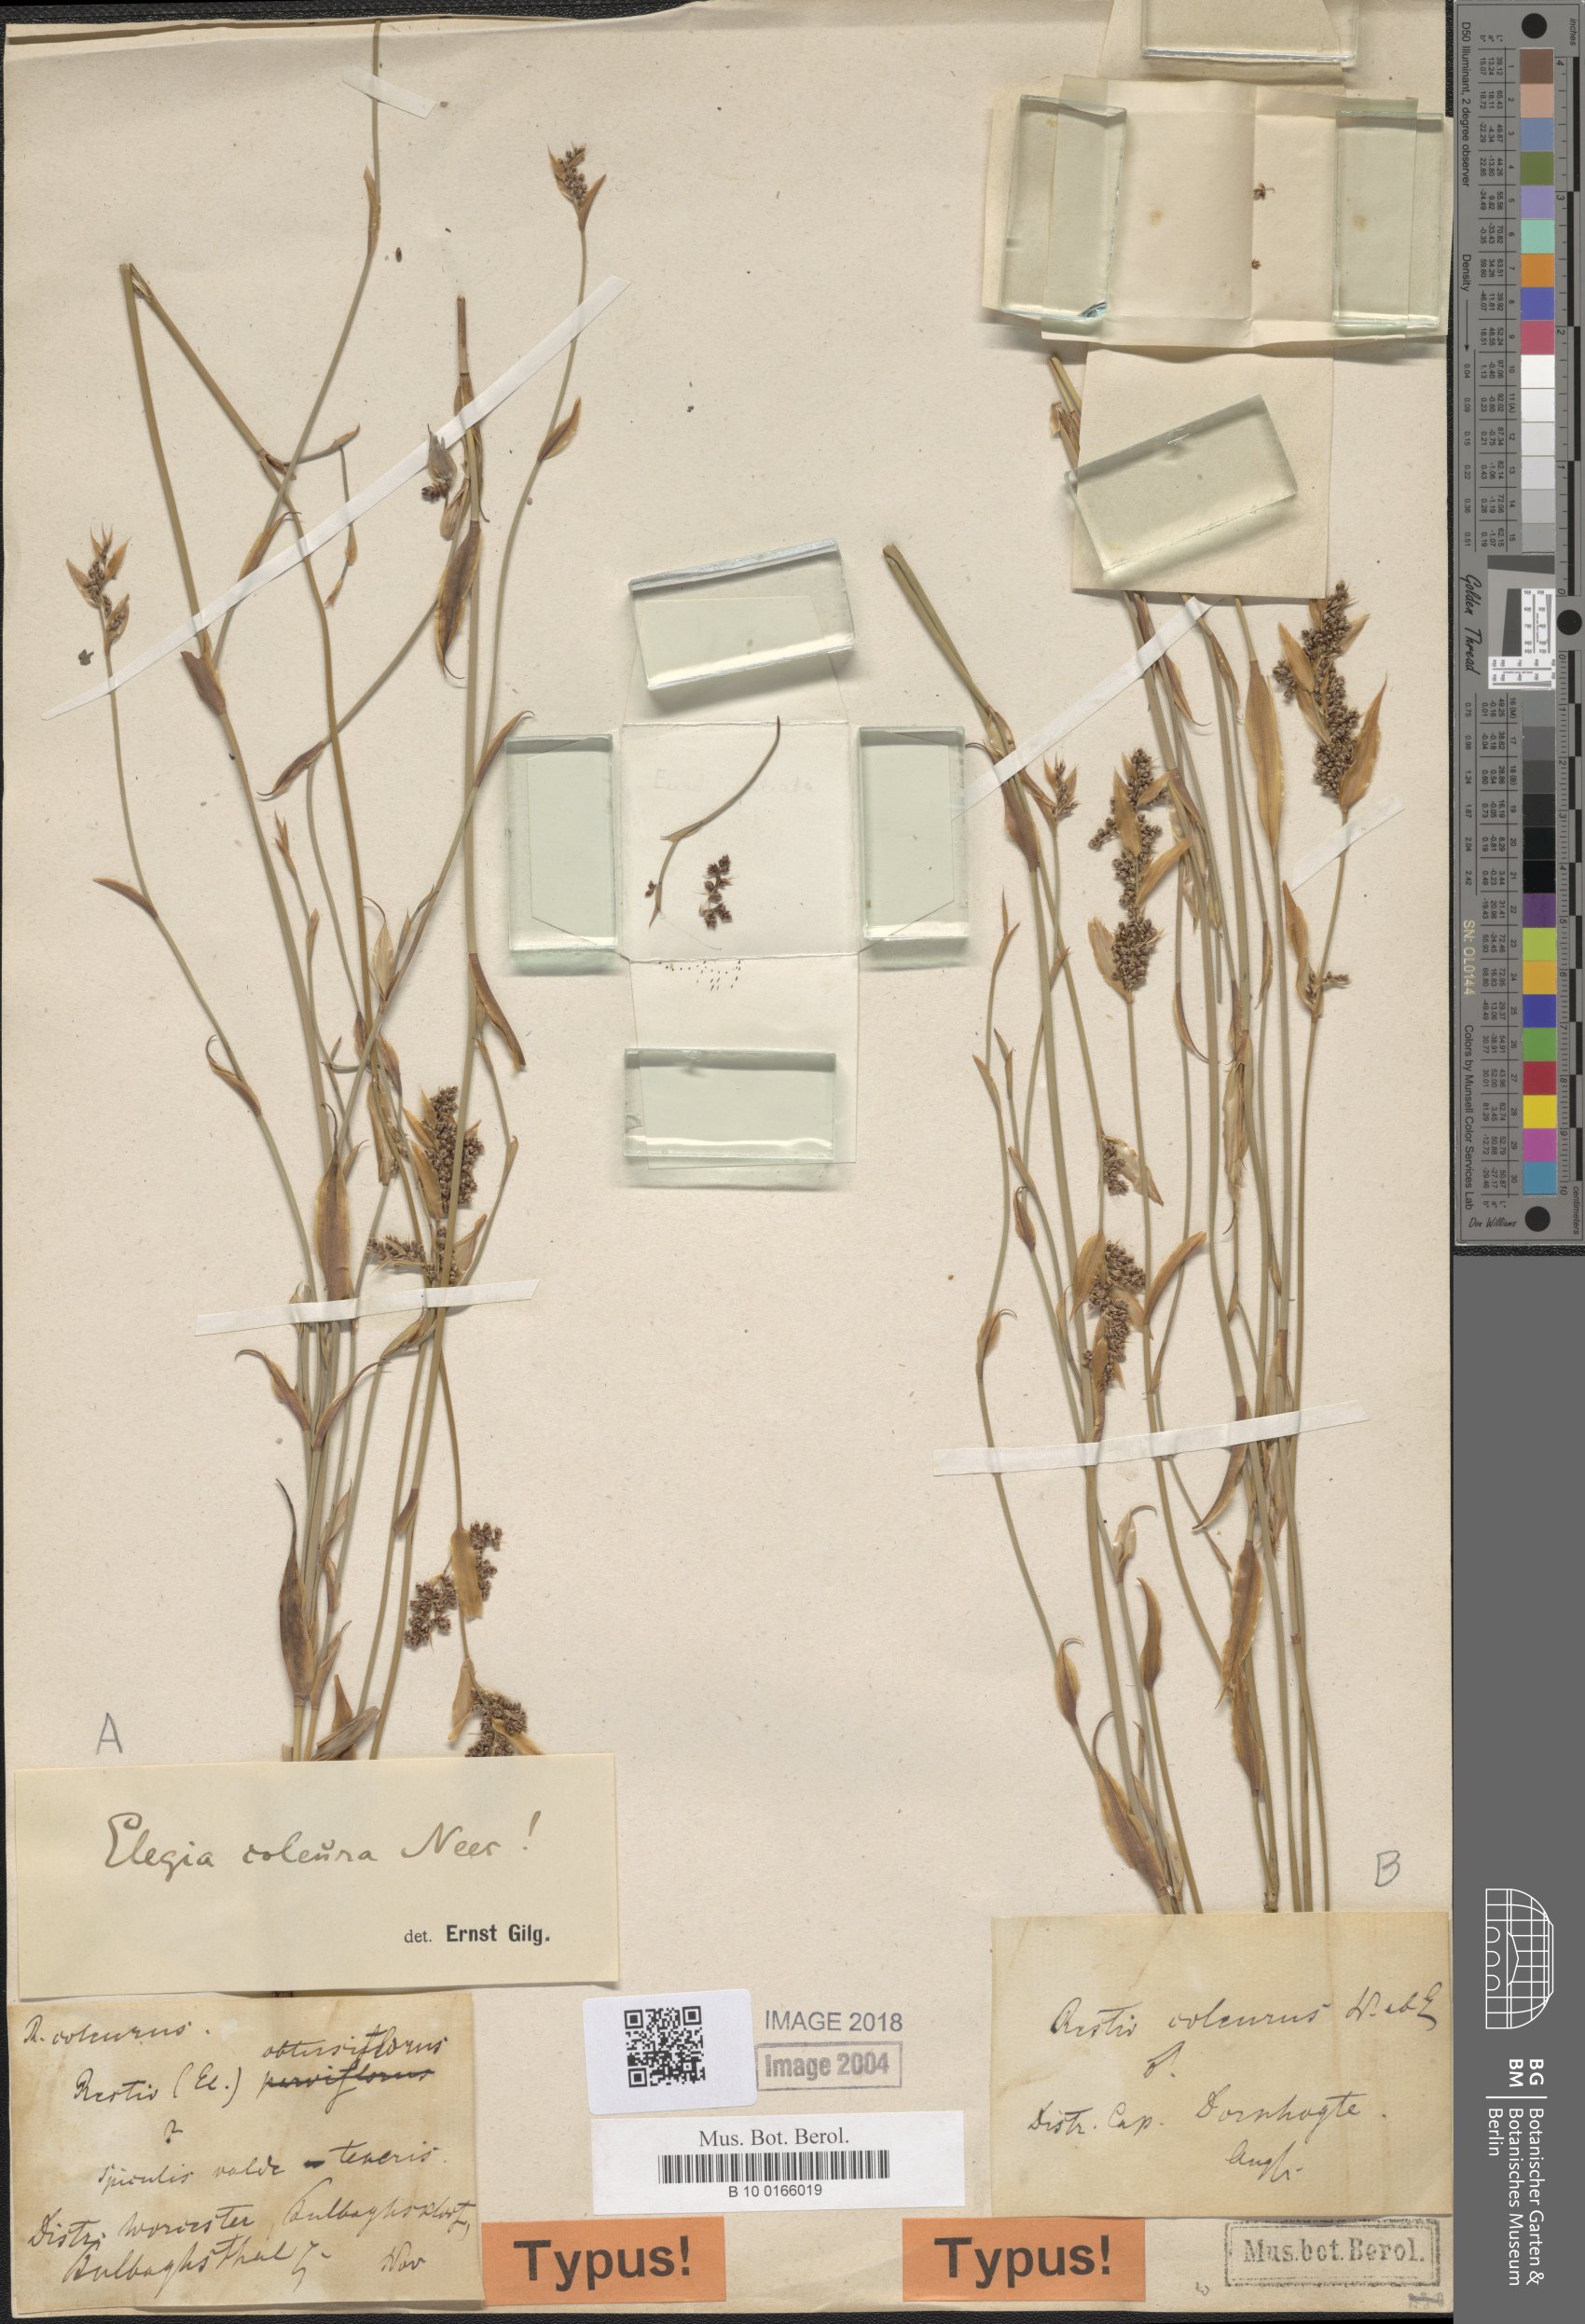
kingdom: Plantae
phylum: Tracheophyta
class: Liliopsida
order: Poales
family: Restionaceae
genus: Elegia
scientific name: Elegia coleura
